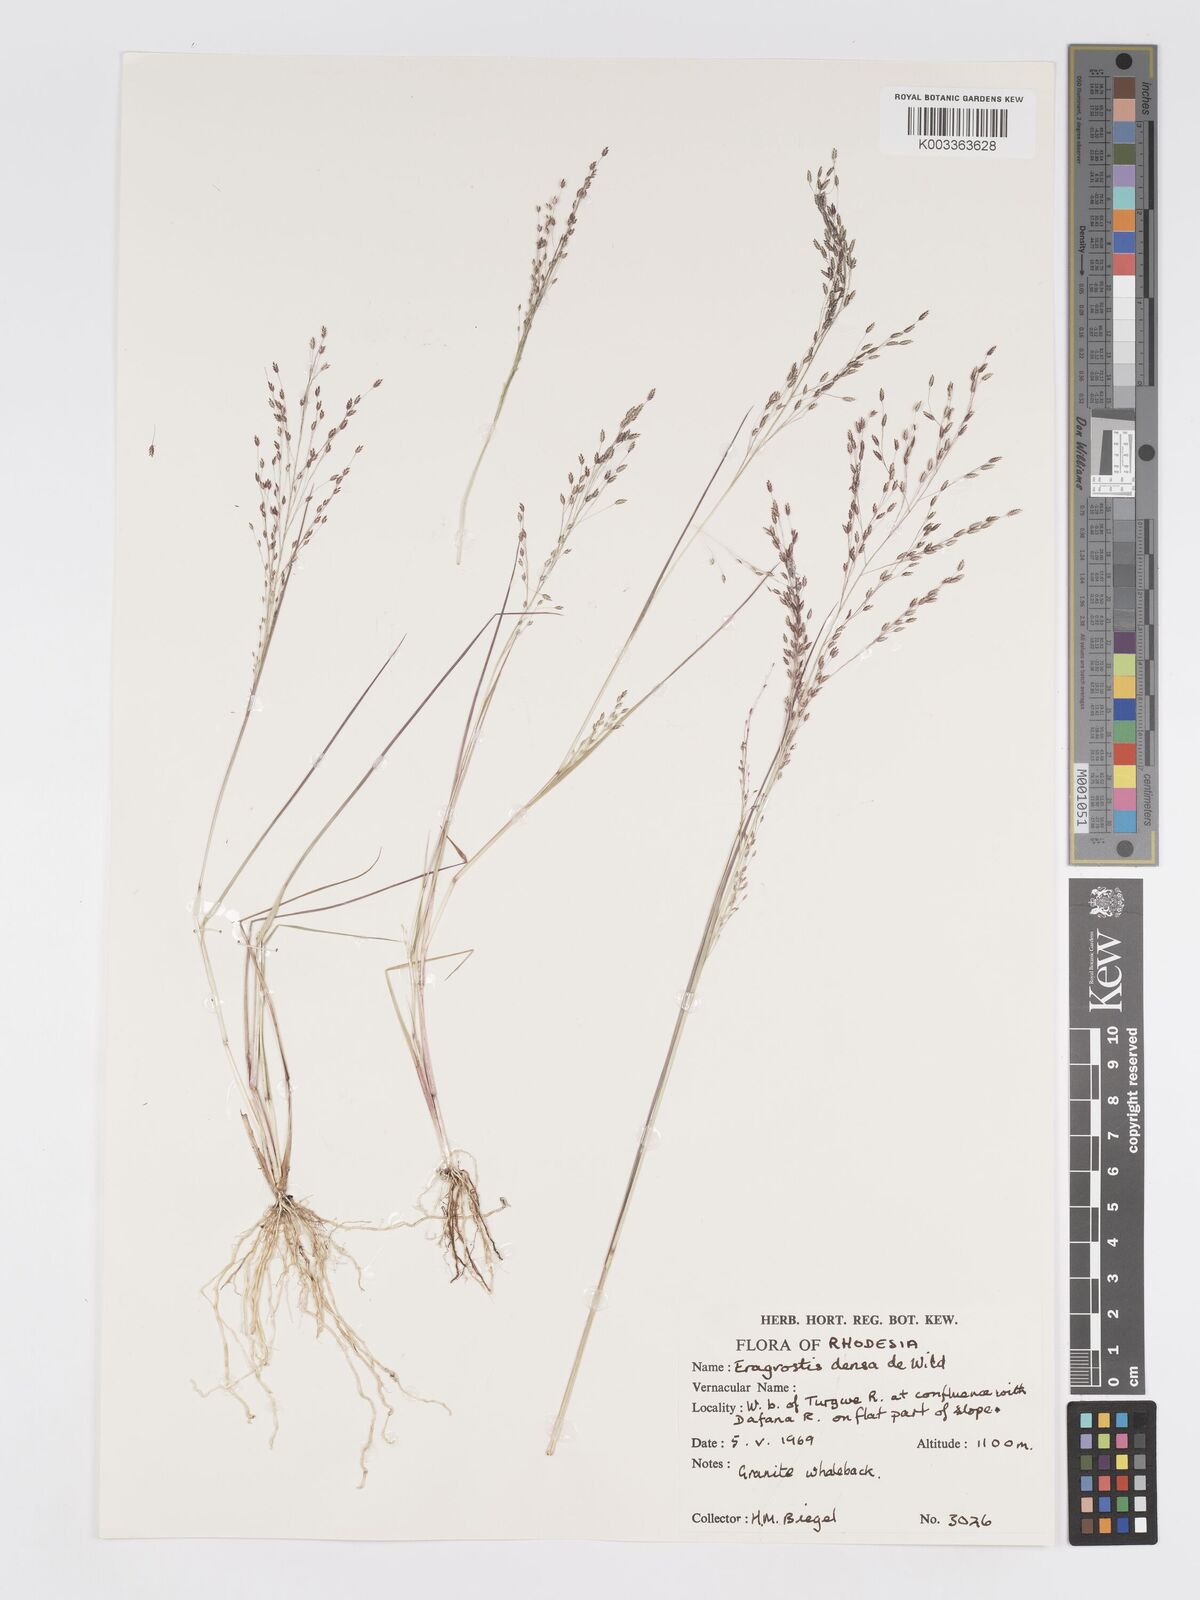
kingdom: Plantae
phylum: Tracheophyta
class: Liliopsida
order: Poales
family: Poaceae
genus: Eragrostis
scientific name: Eragrostis welwitschii
